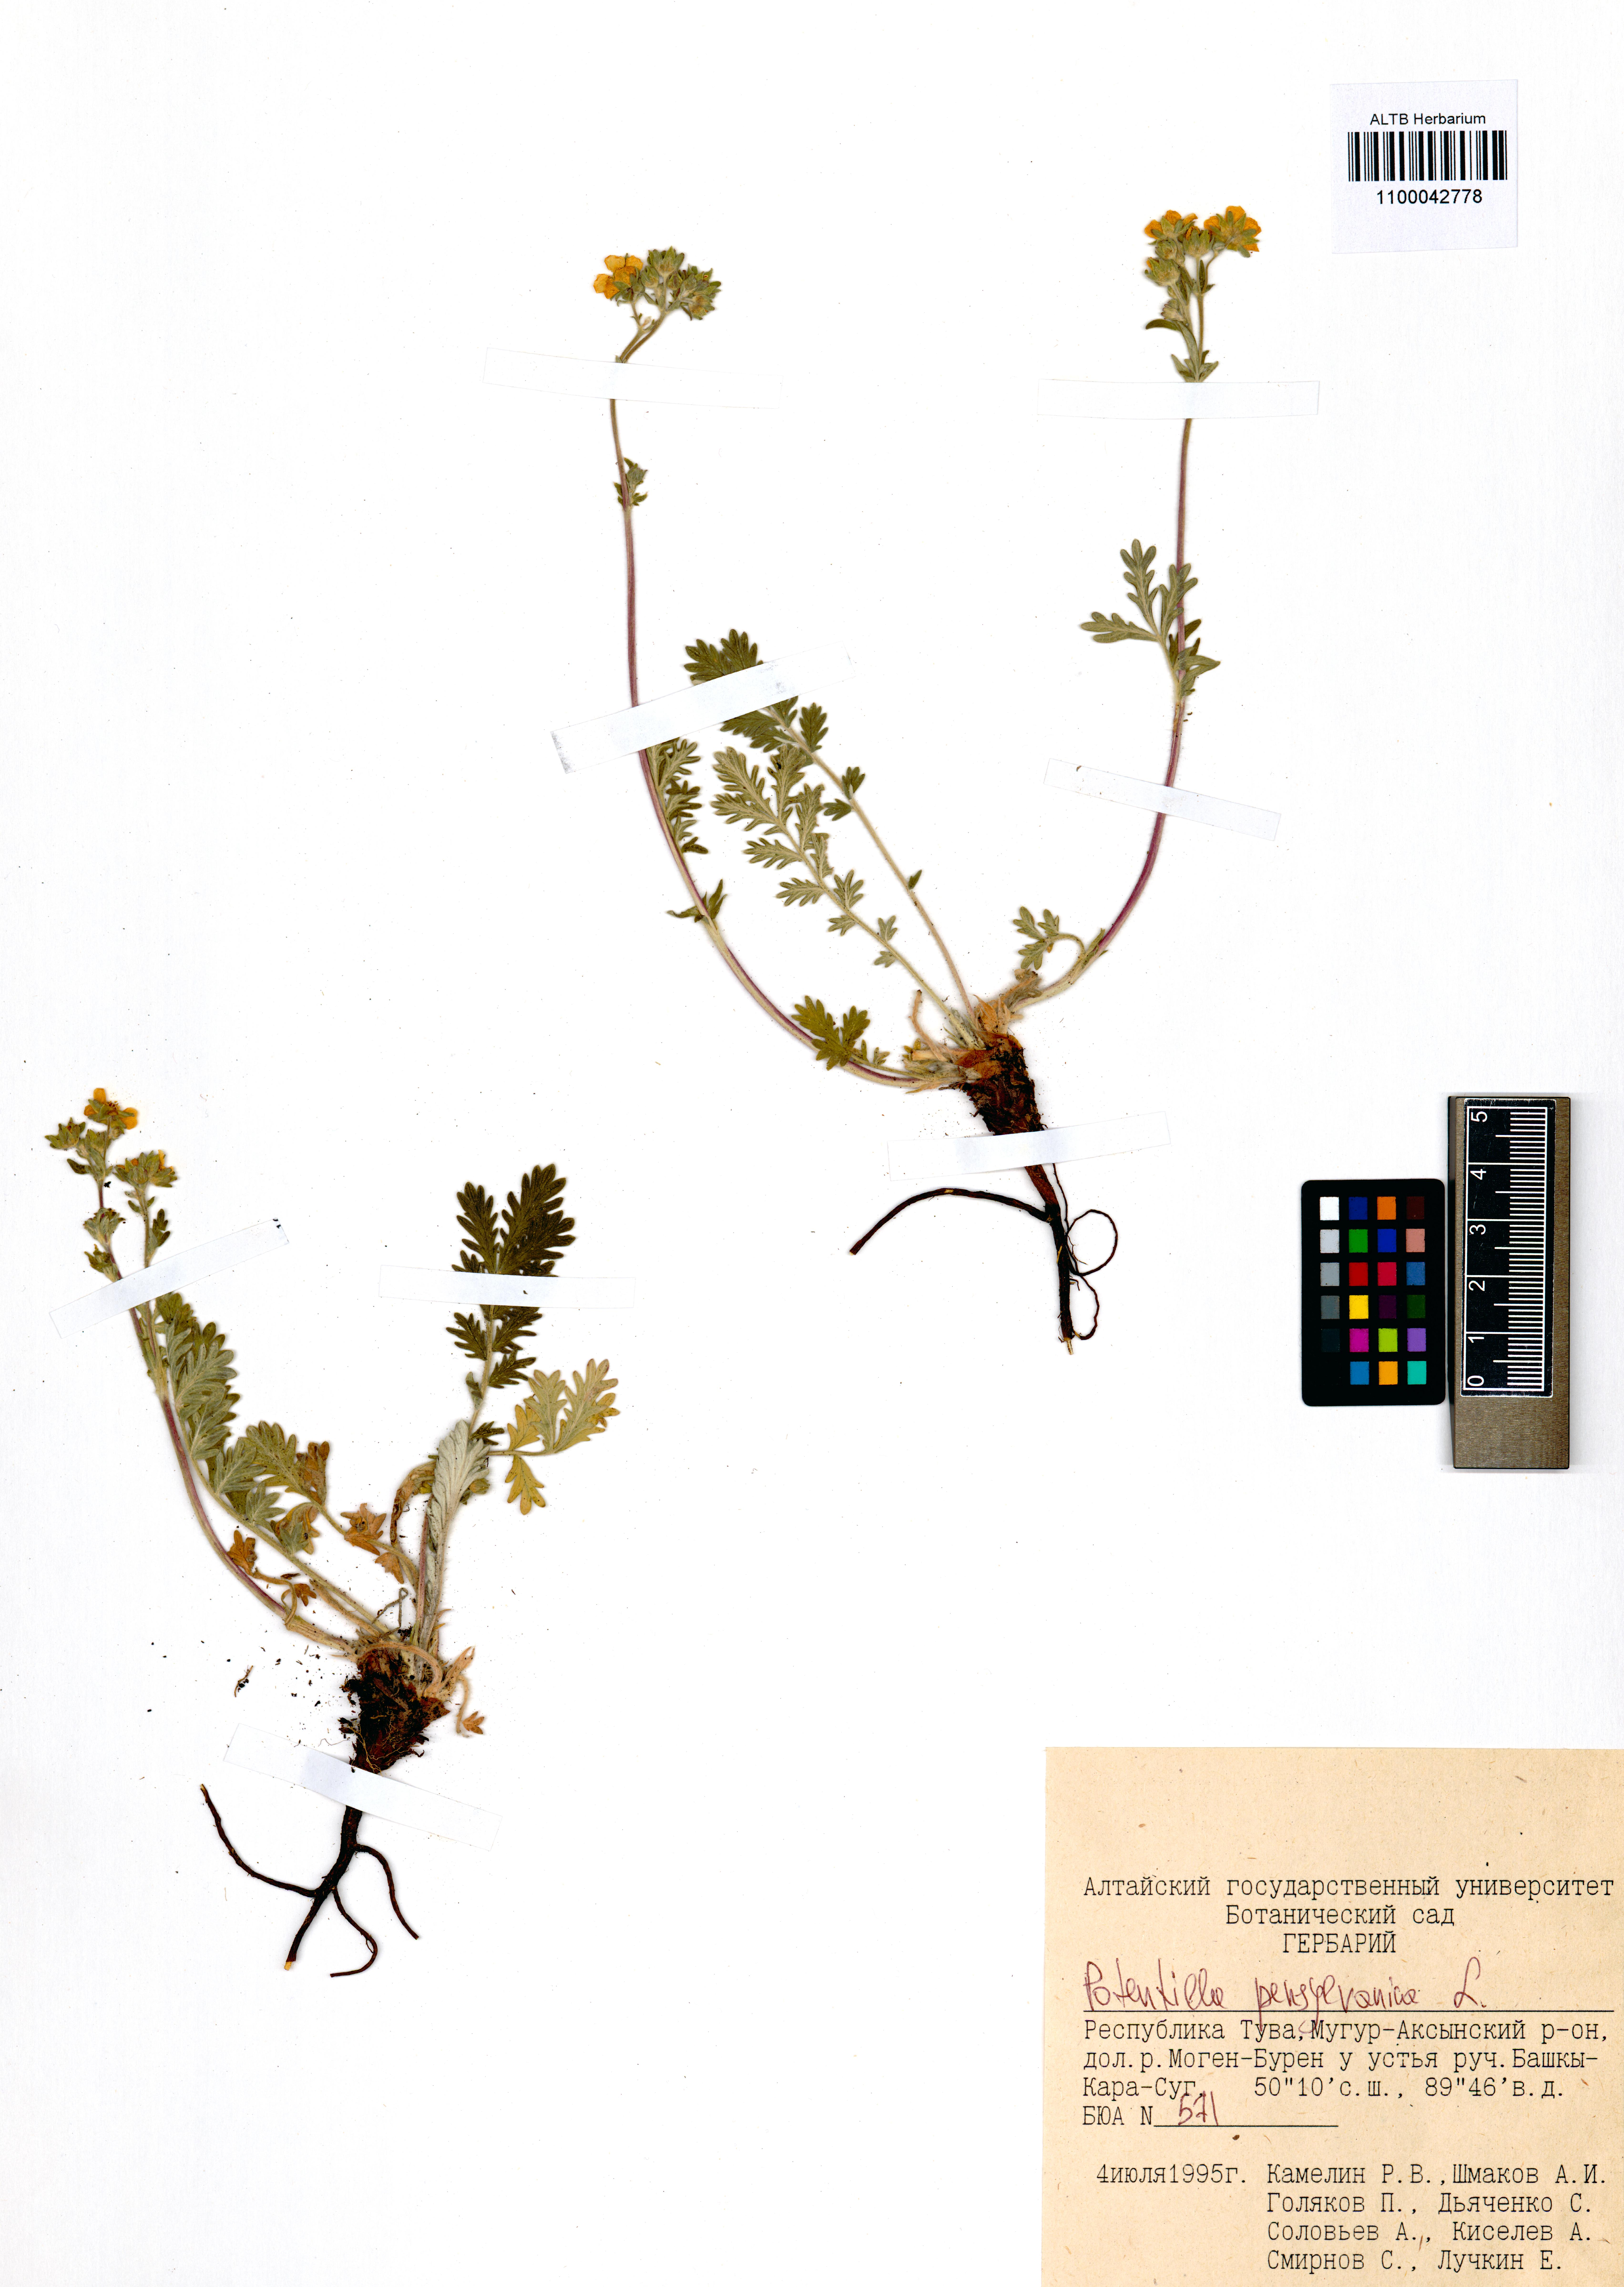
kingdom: Plantae
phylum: Tracheophyta
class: Magnoliopsida
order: Rosales
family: Rosaceae
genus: Potentilla
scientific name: Potentilla pensylvanica
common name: Pennsylvania cinquefoil
